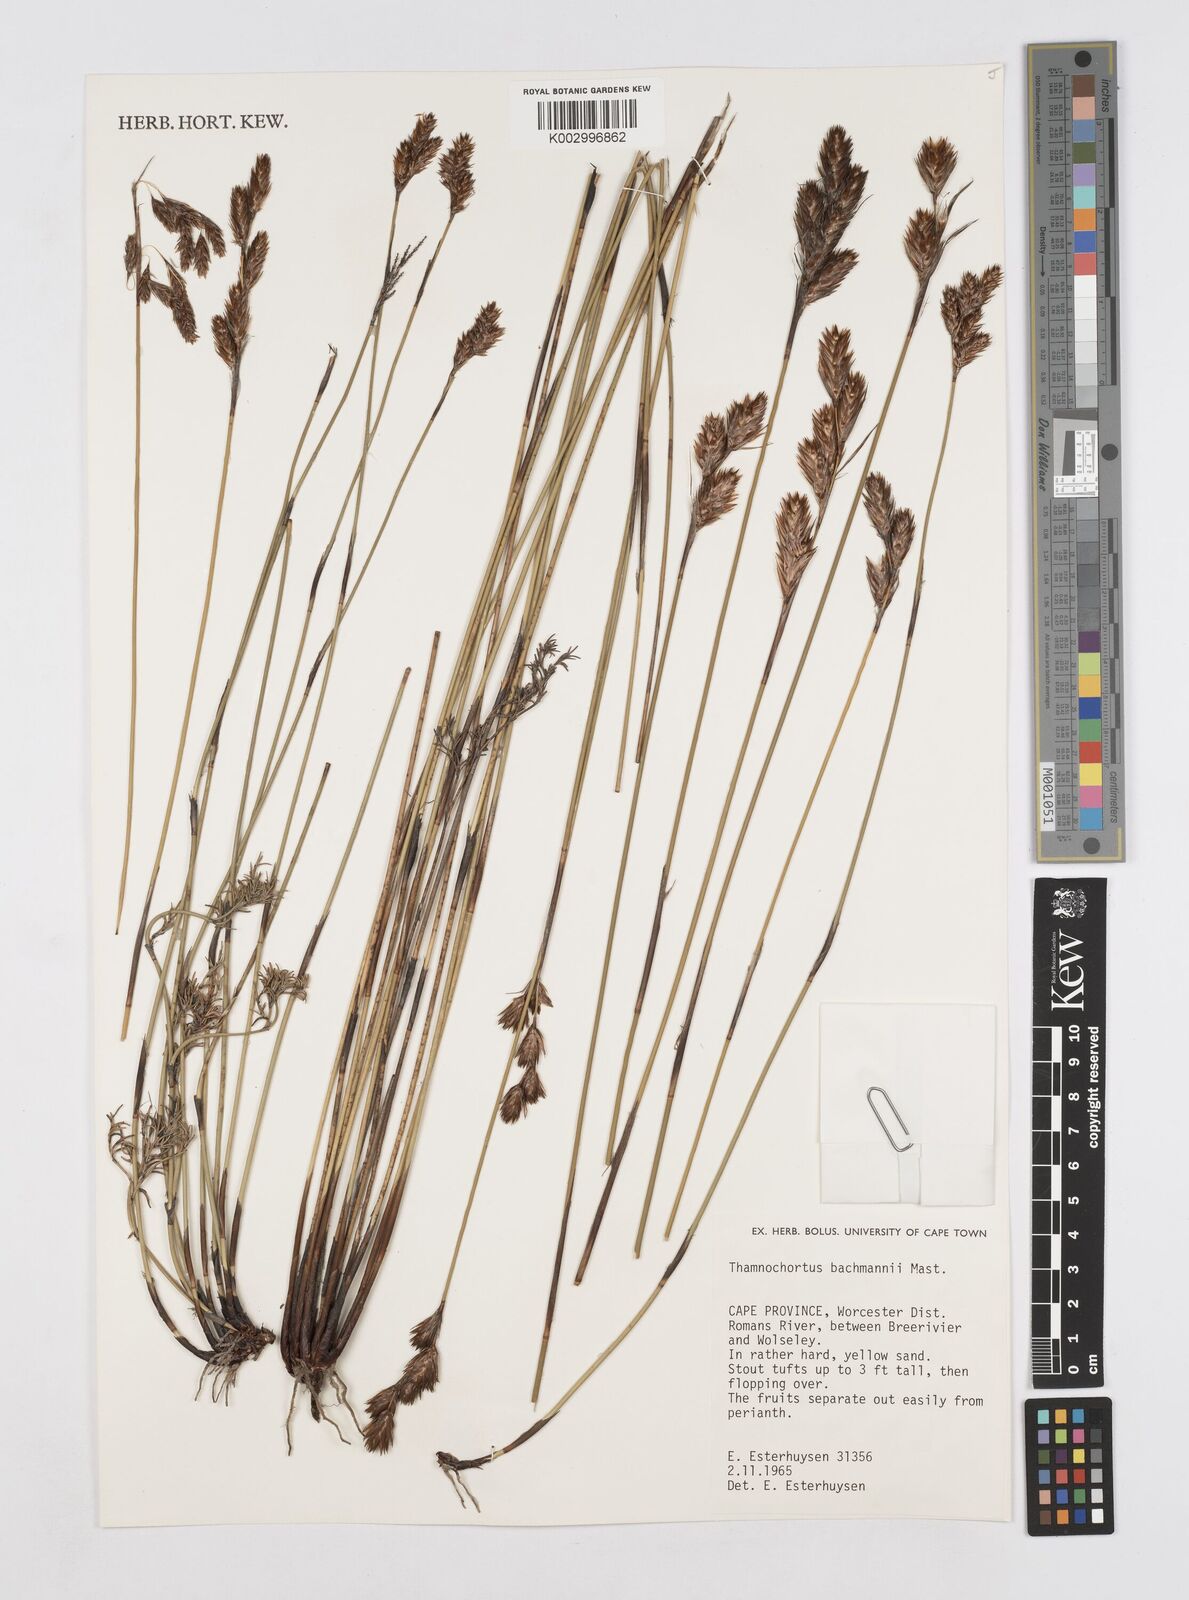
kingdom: Plantae
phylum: Tracheophyta
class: Liliopsida
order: Poales
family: Restionaceae
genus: Thamnochortus
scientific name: Thamnochortus bachmannii
